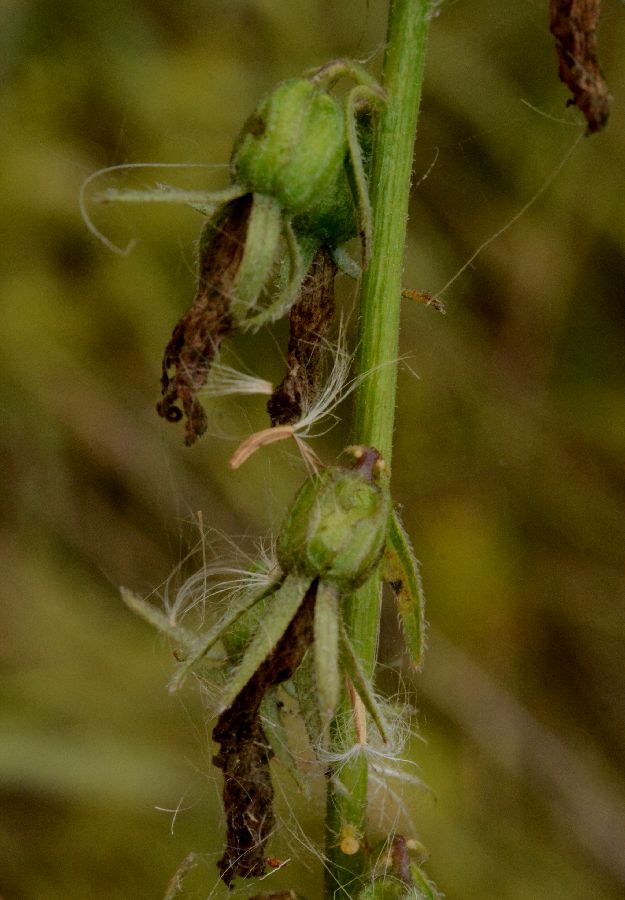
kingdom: Plantae
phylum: Tracheophyta
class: Magnoliopsida
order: Asterales
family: Campanulaceae
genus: Campanula
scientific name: Campanula rapunculoides
